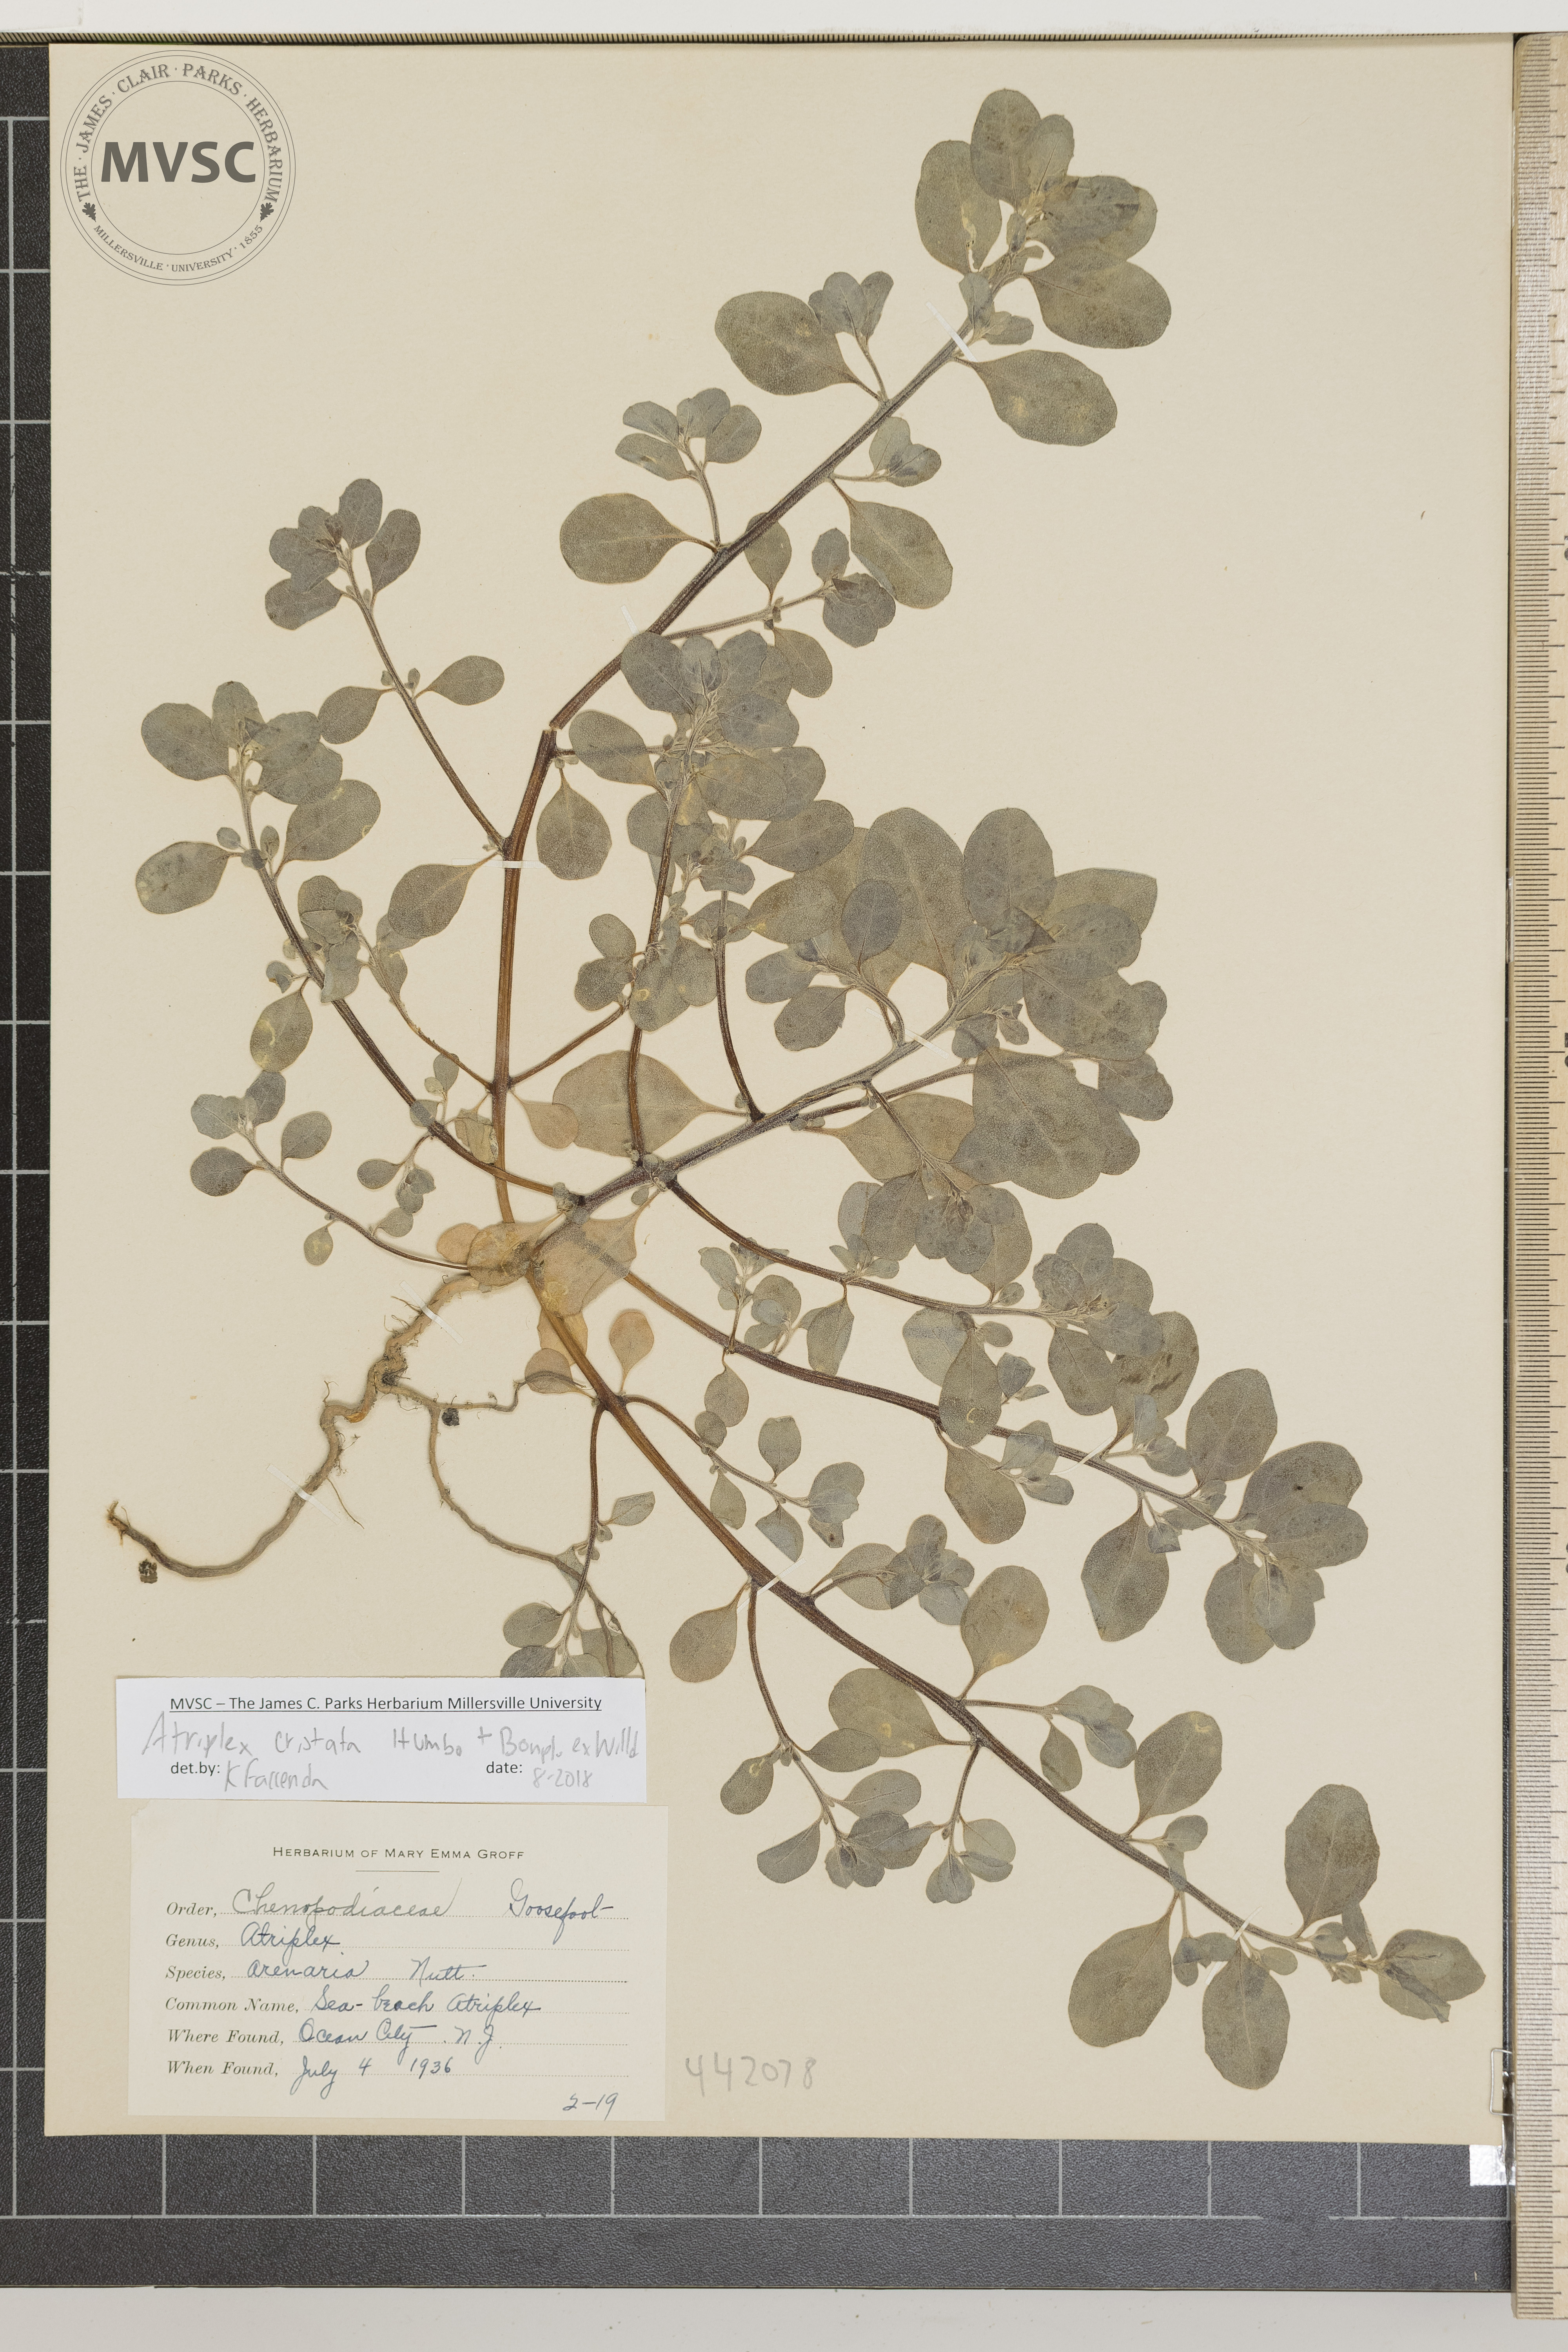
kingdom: Plantae
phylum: Tracheophyta
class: Magnoliopsida
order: Caryophyllales
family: Amaranthaceae
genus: Atriplex
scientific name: Atriplex cristata
